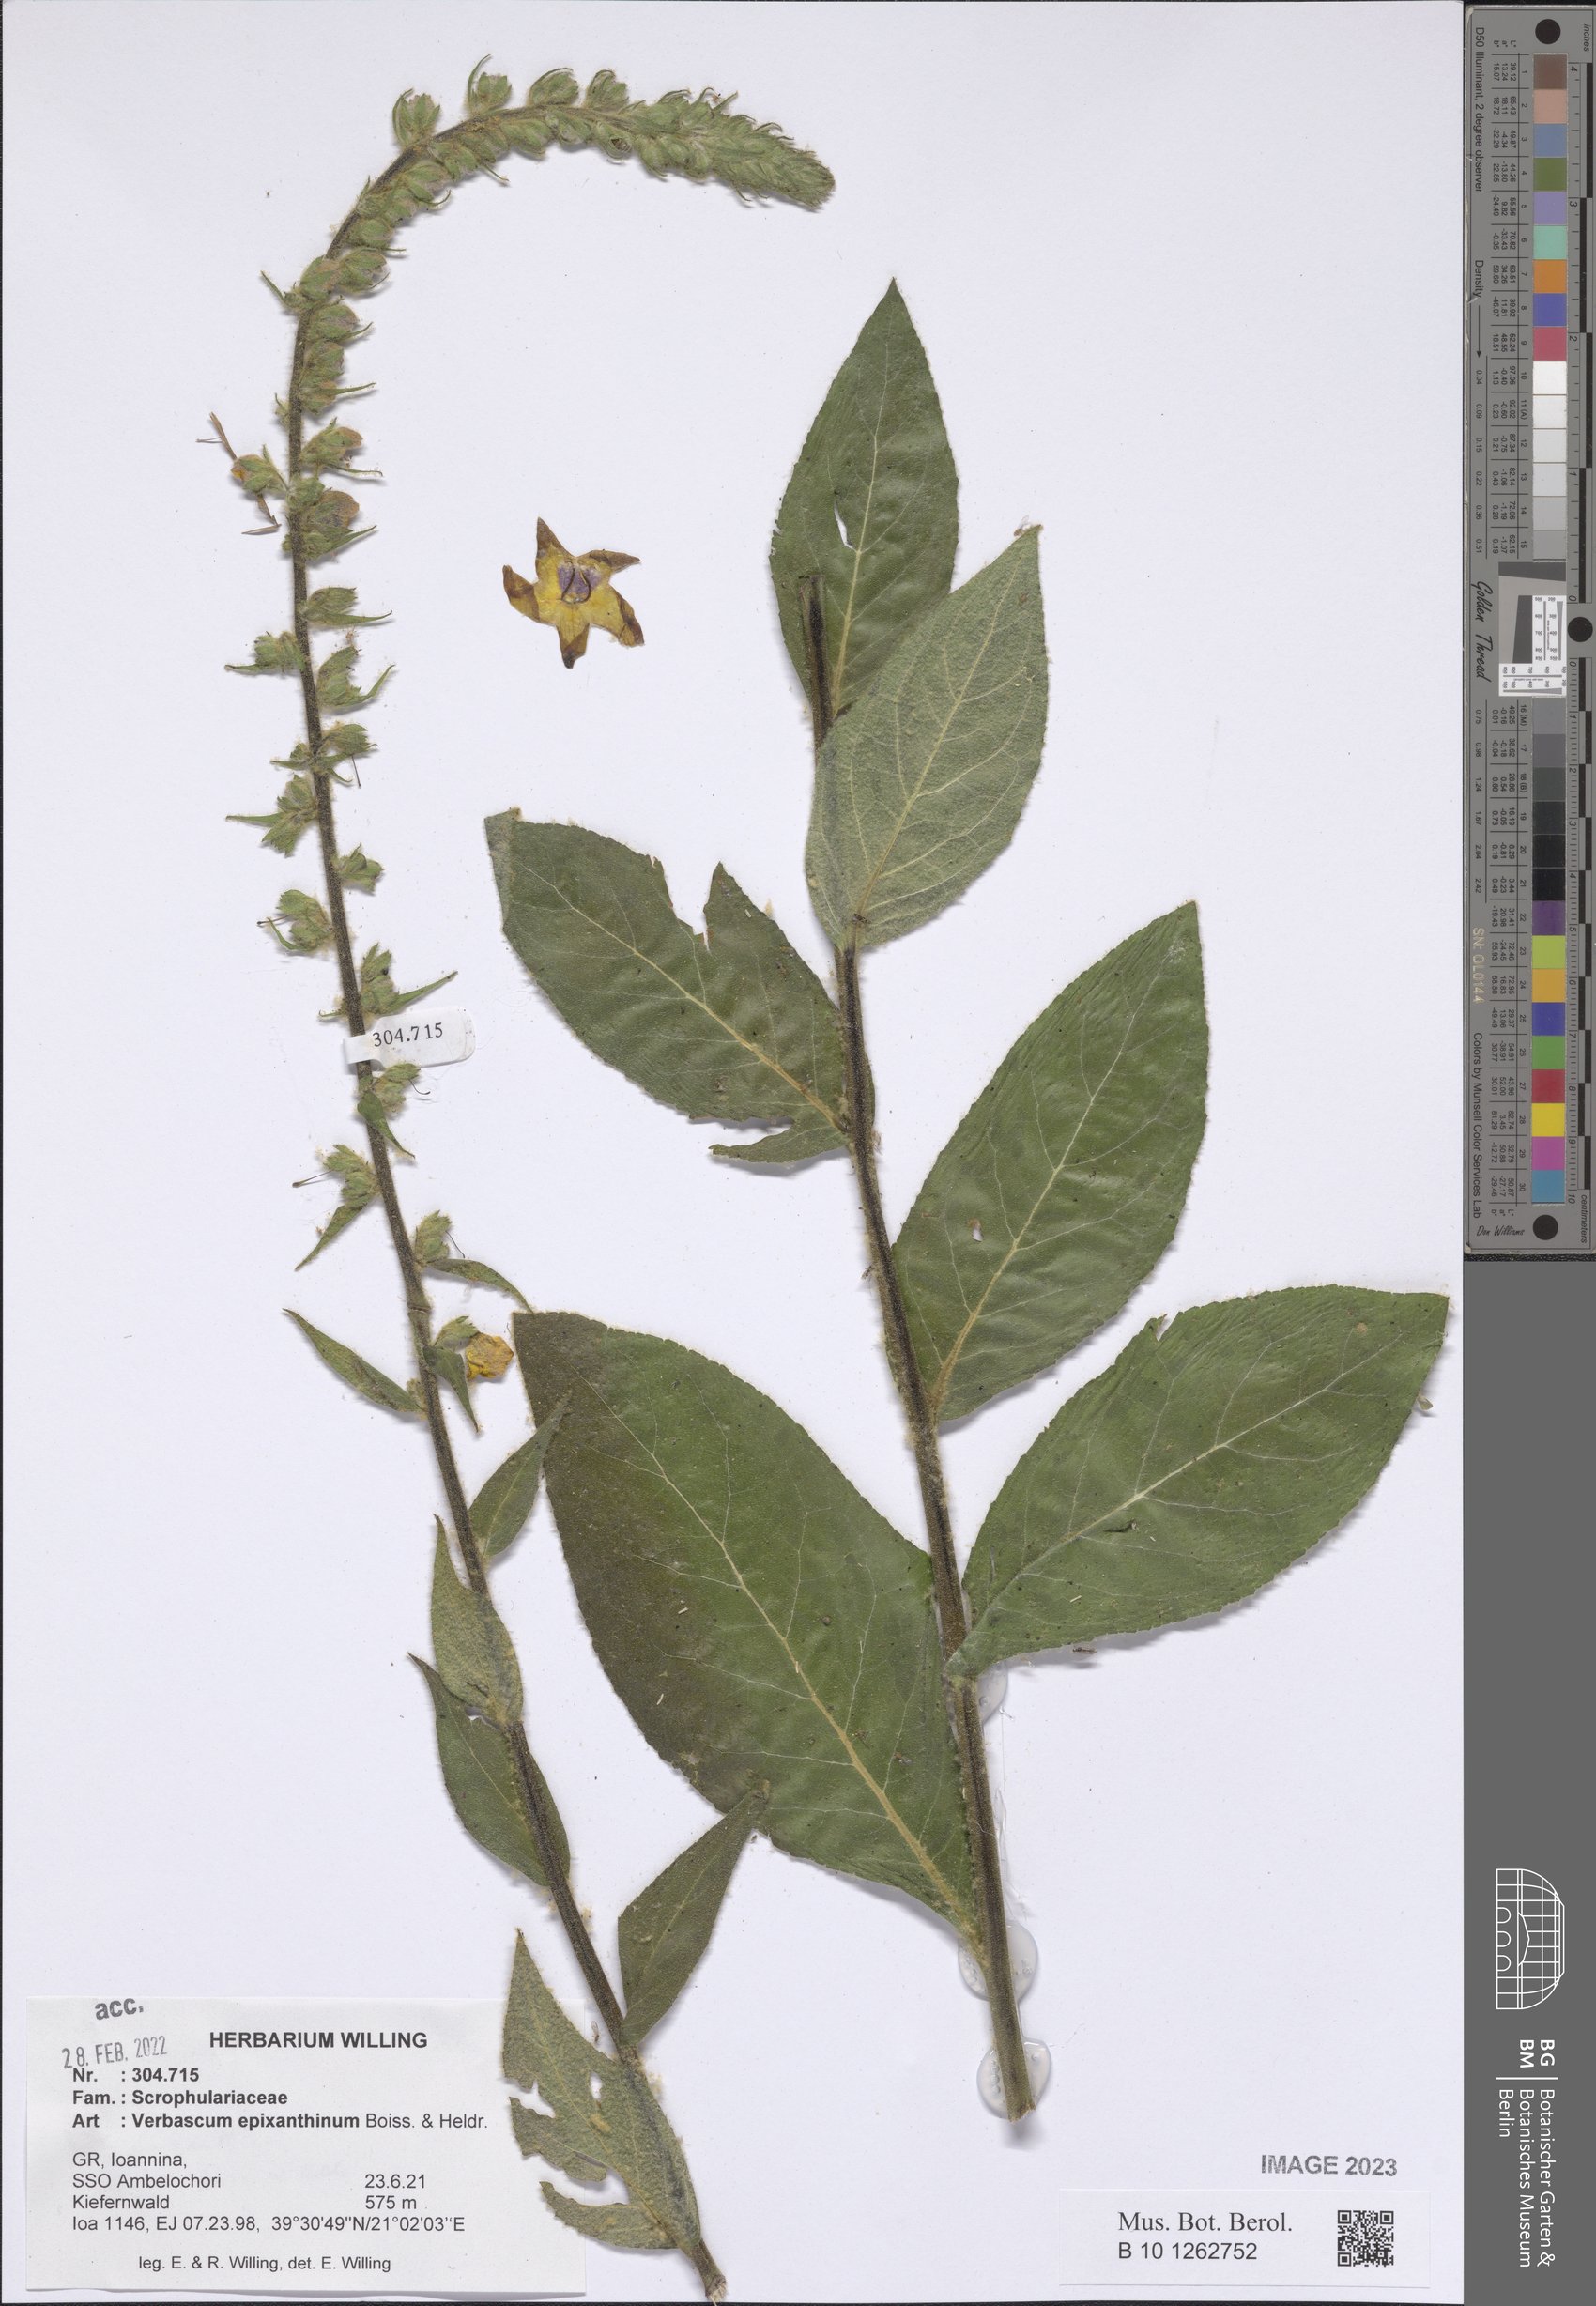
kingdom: Plantae
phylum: Tracheophyta
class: Magnoliopsida
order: Lamiales
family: Scrophulariaceae
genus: Verbascum
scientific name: Verbascum epixanthinum
